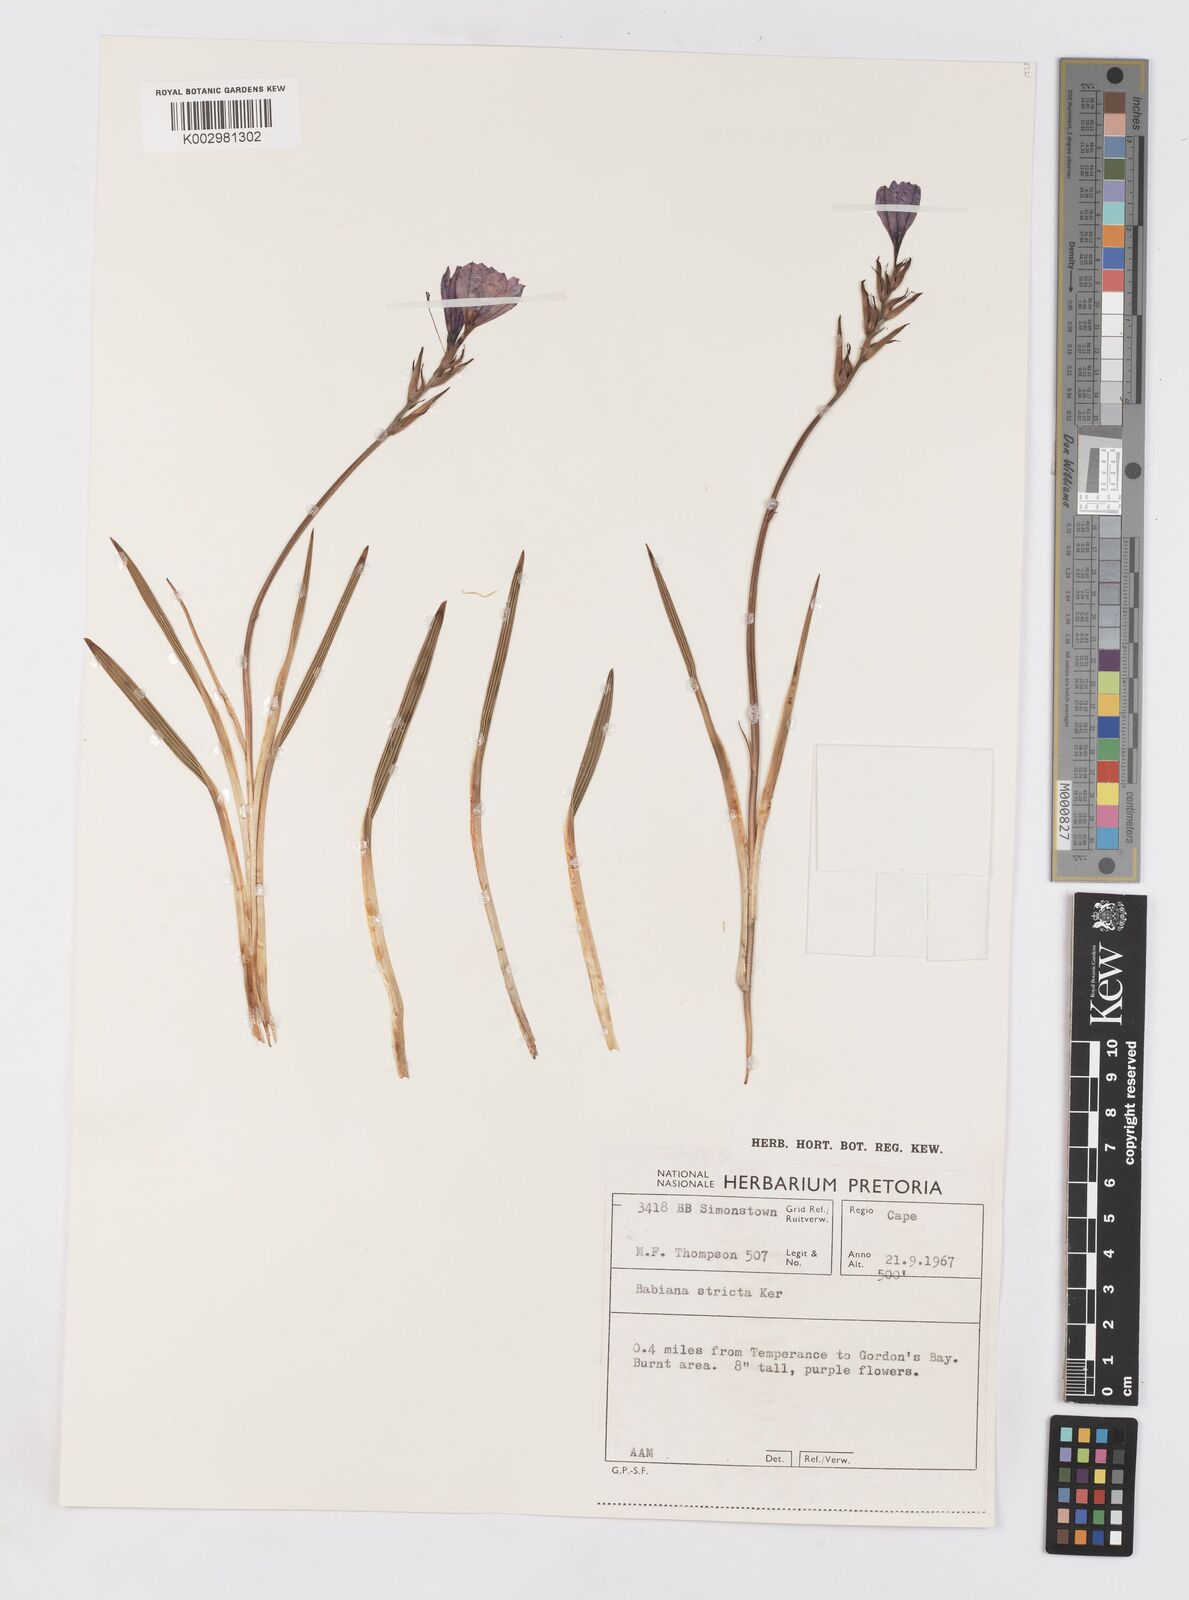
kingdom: Plantae
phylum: Tracheophyta
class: Liliopsida
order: Asparagales
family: Iridaceae
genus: Babiana
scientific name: Babiana nervosa
